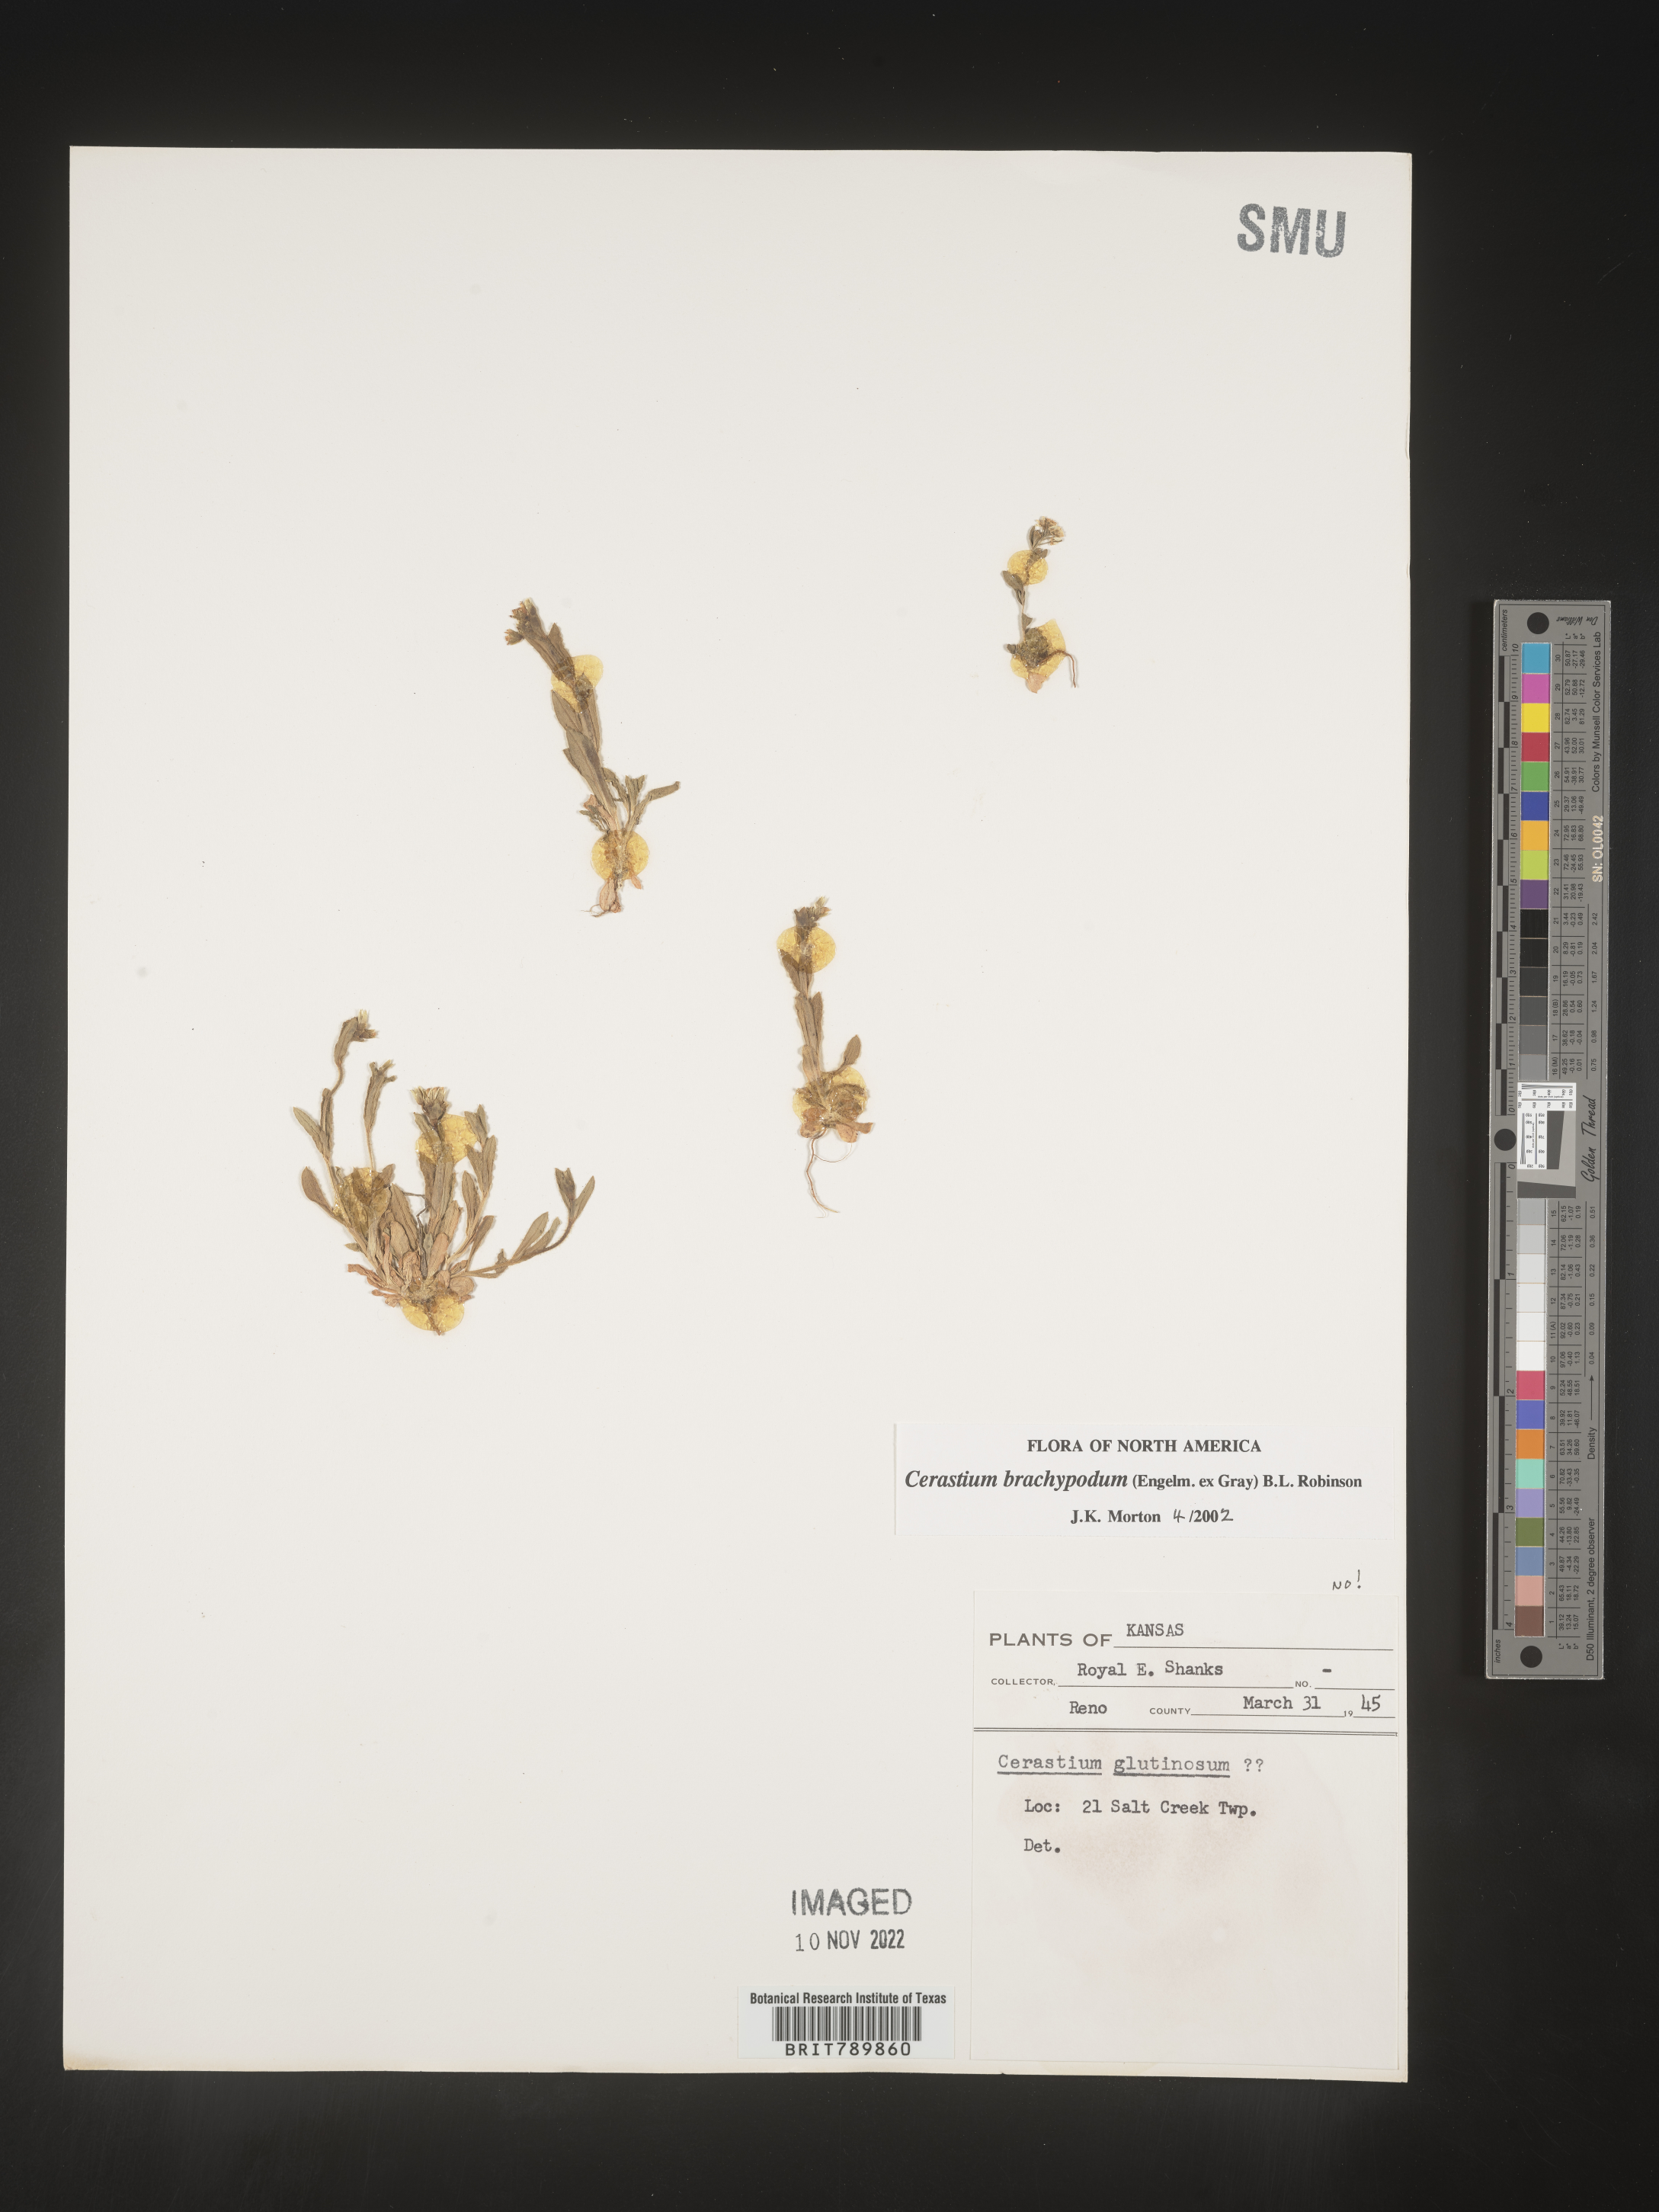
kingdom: Plantae
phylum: Tracheophyta
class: Magnoliopsida
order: Caryophyllales
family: Caryophyllaceae
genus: Cerastium
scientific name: Cerastium brachypodum
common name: Short-pedicelled nodding chickweed
